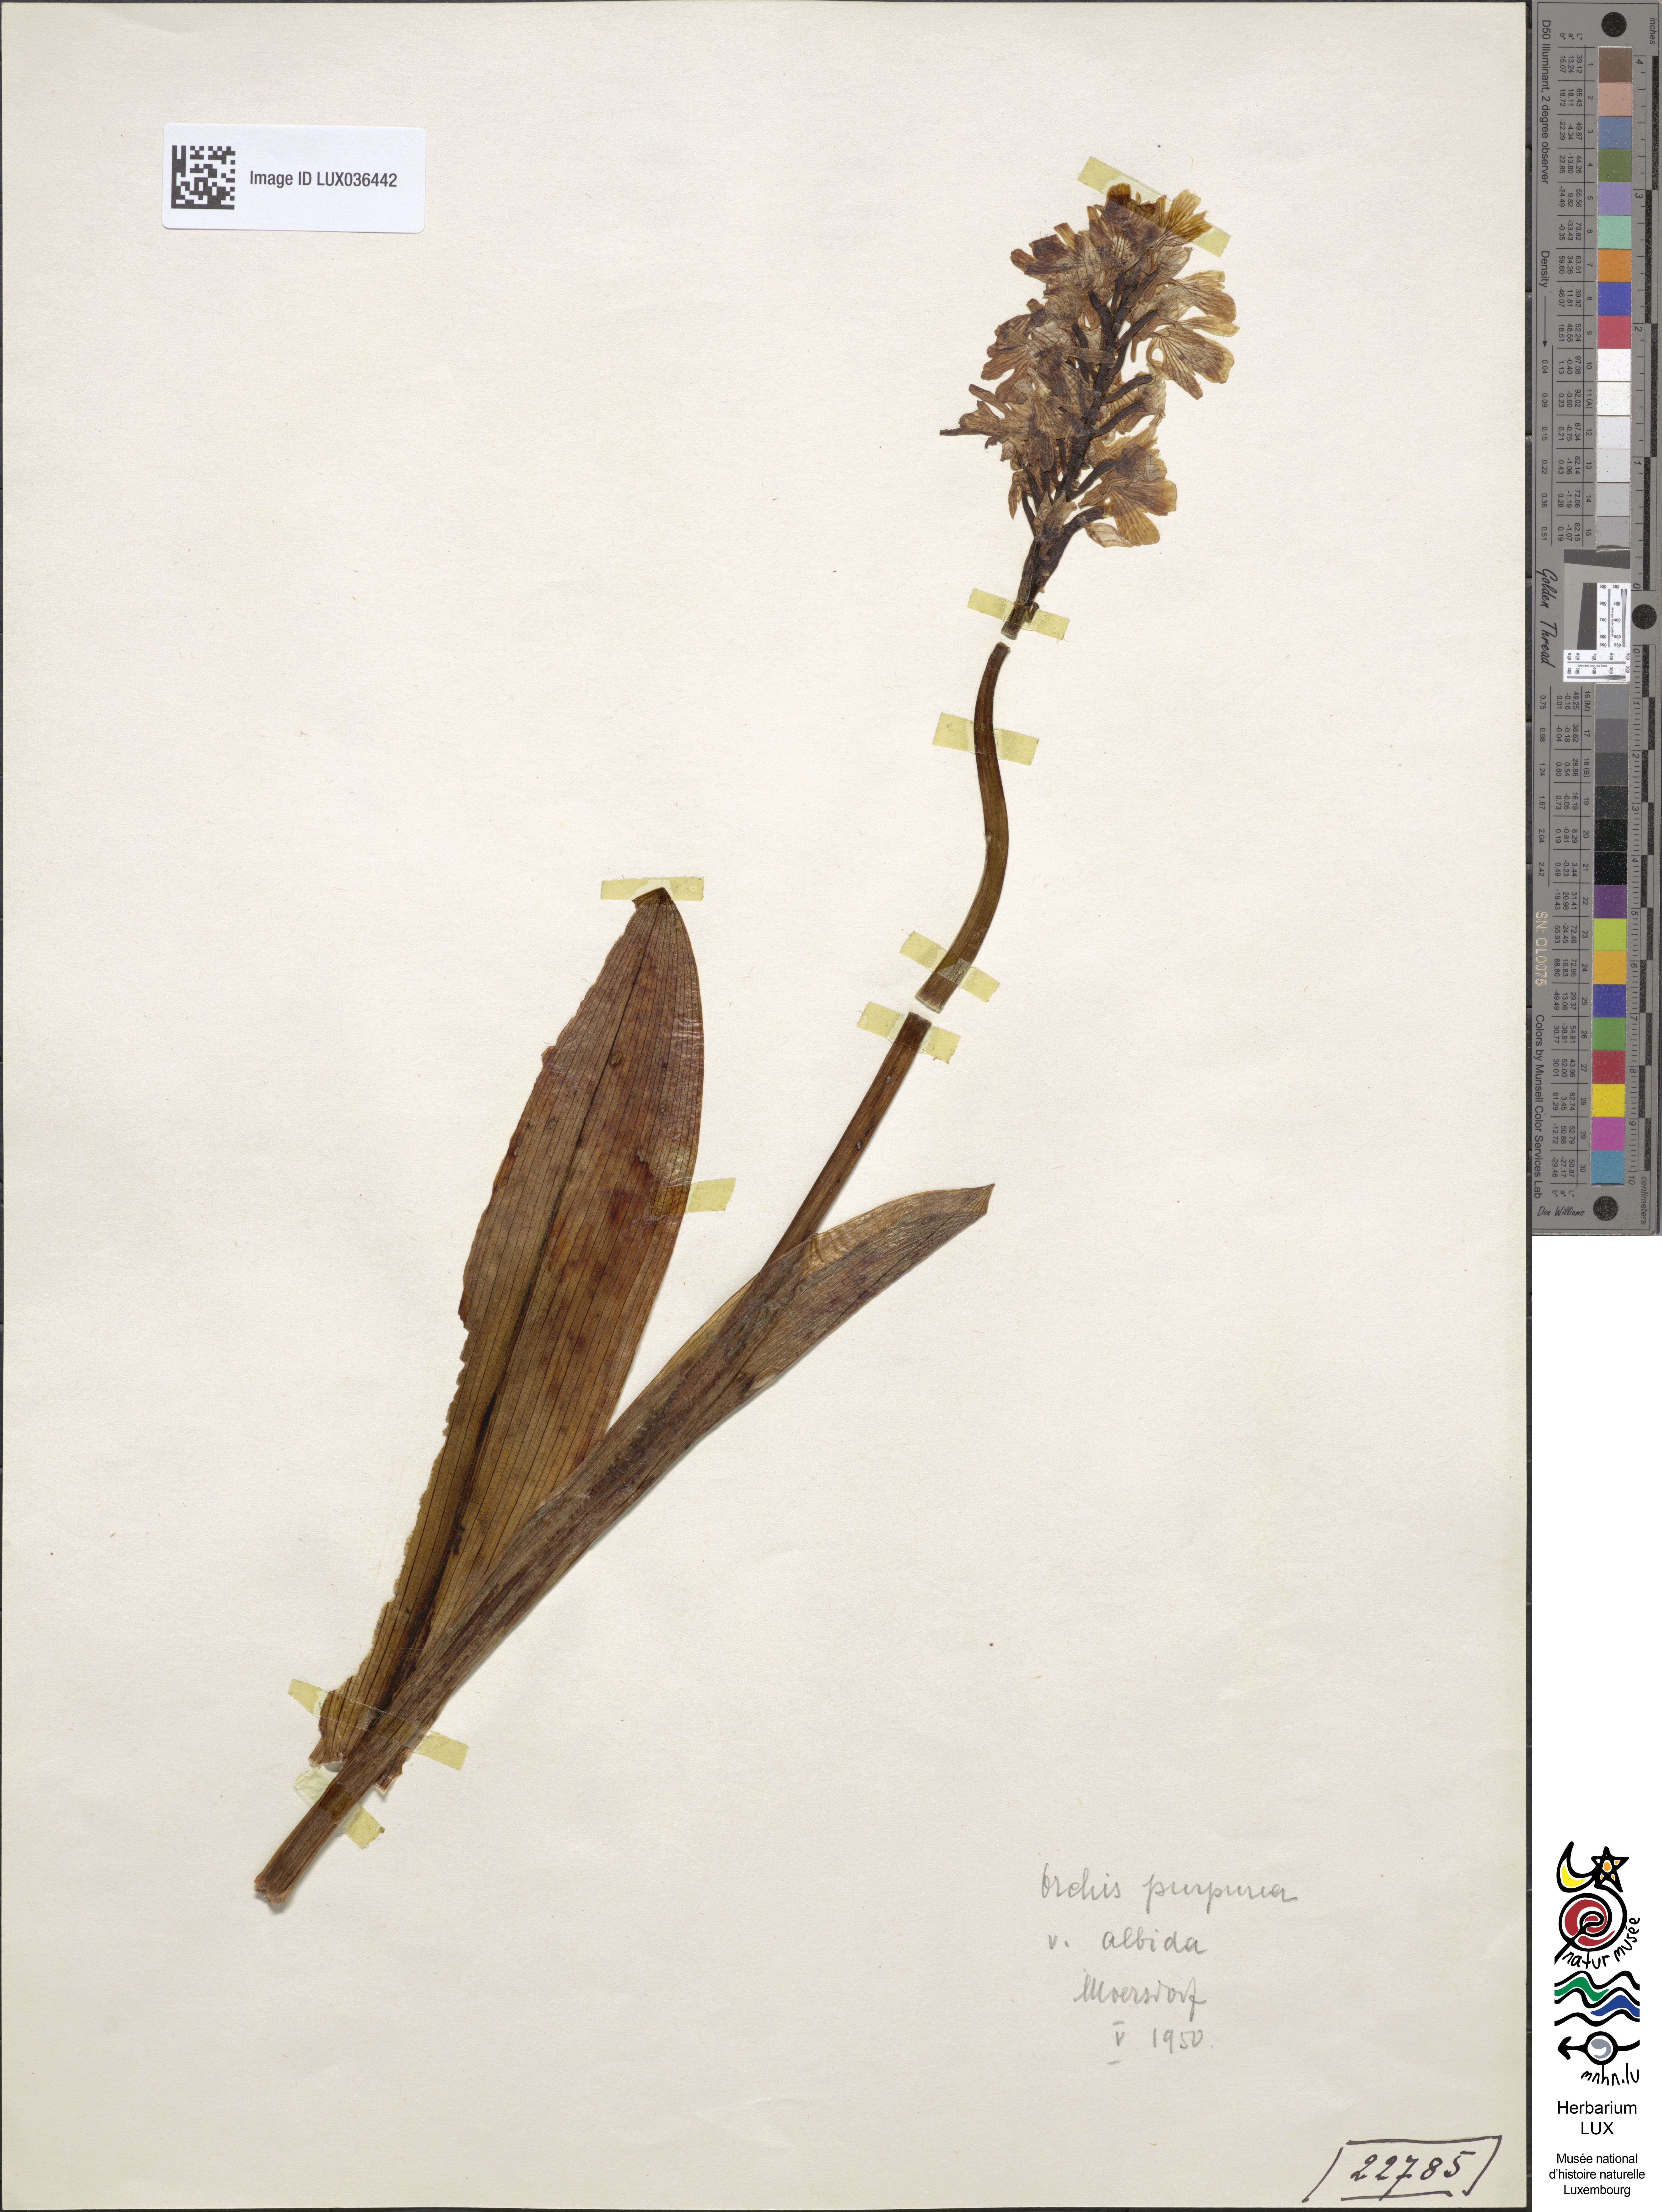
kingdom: Plantae
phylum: Tracheophyta
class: Liliopsida
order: Asparagales
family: Orchidaceae
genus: Orchis
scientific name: Orchis purpurea
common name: Lady orchid
